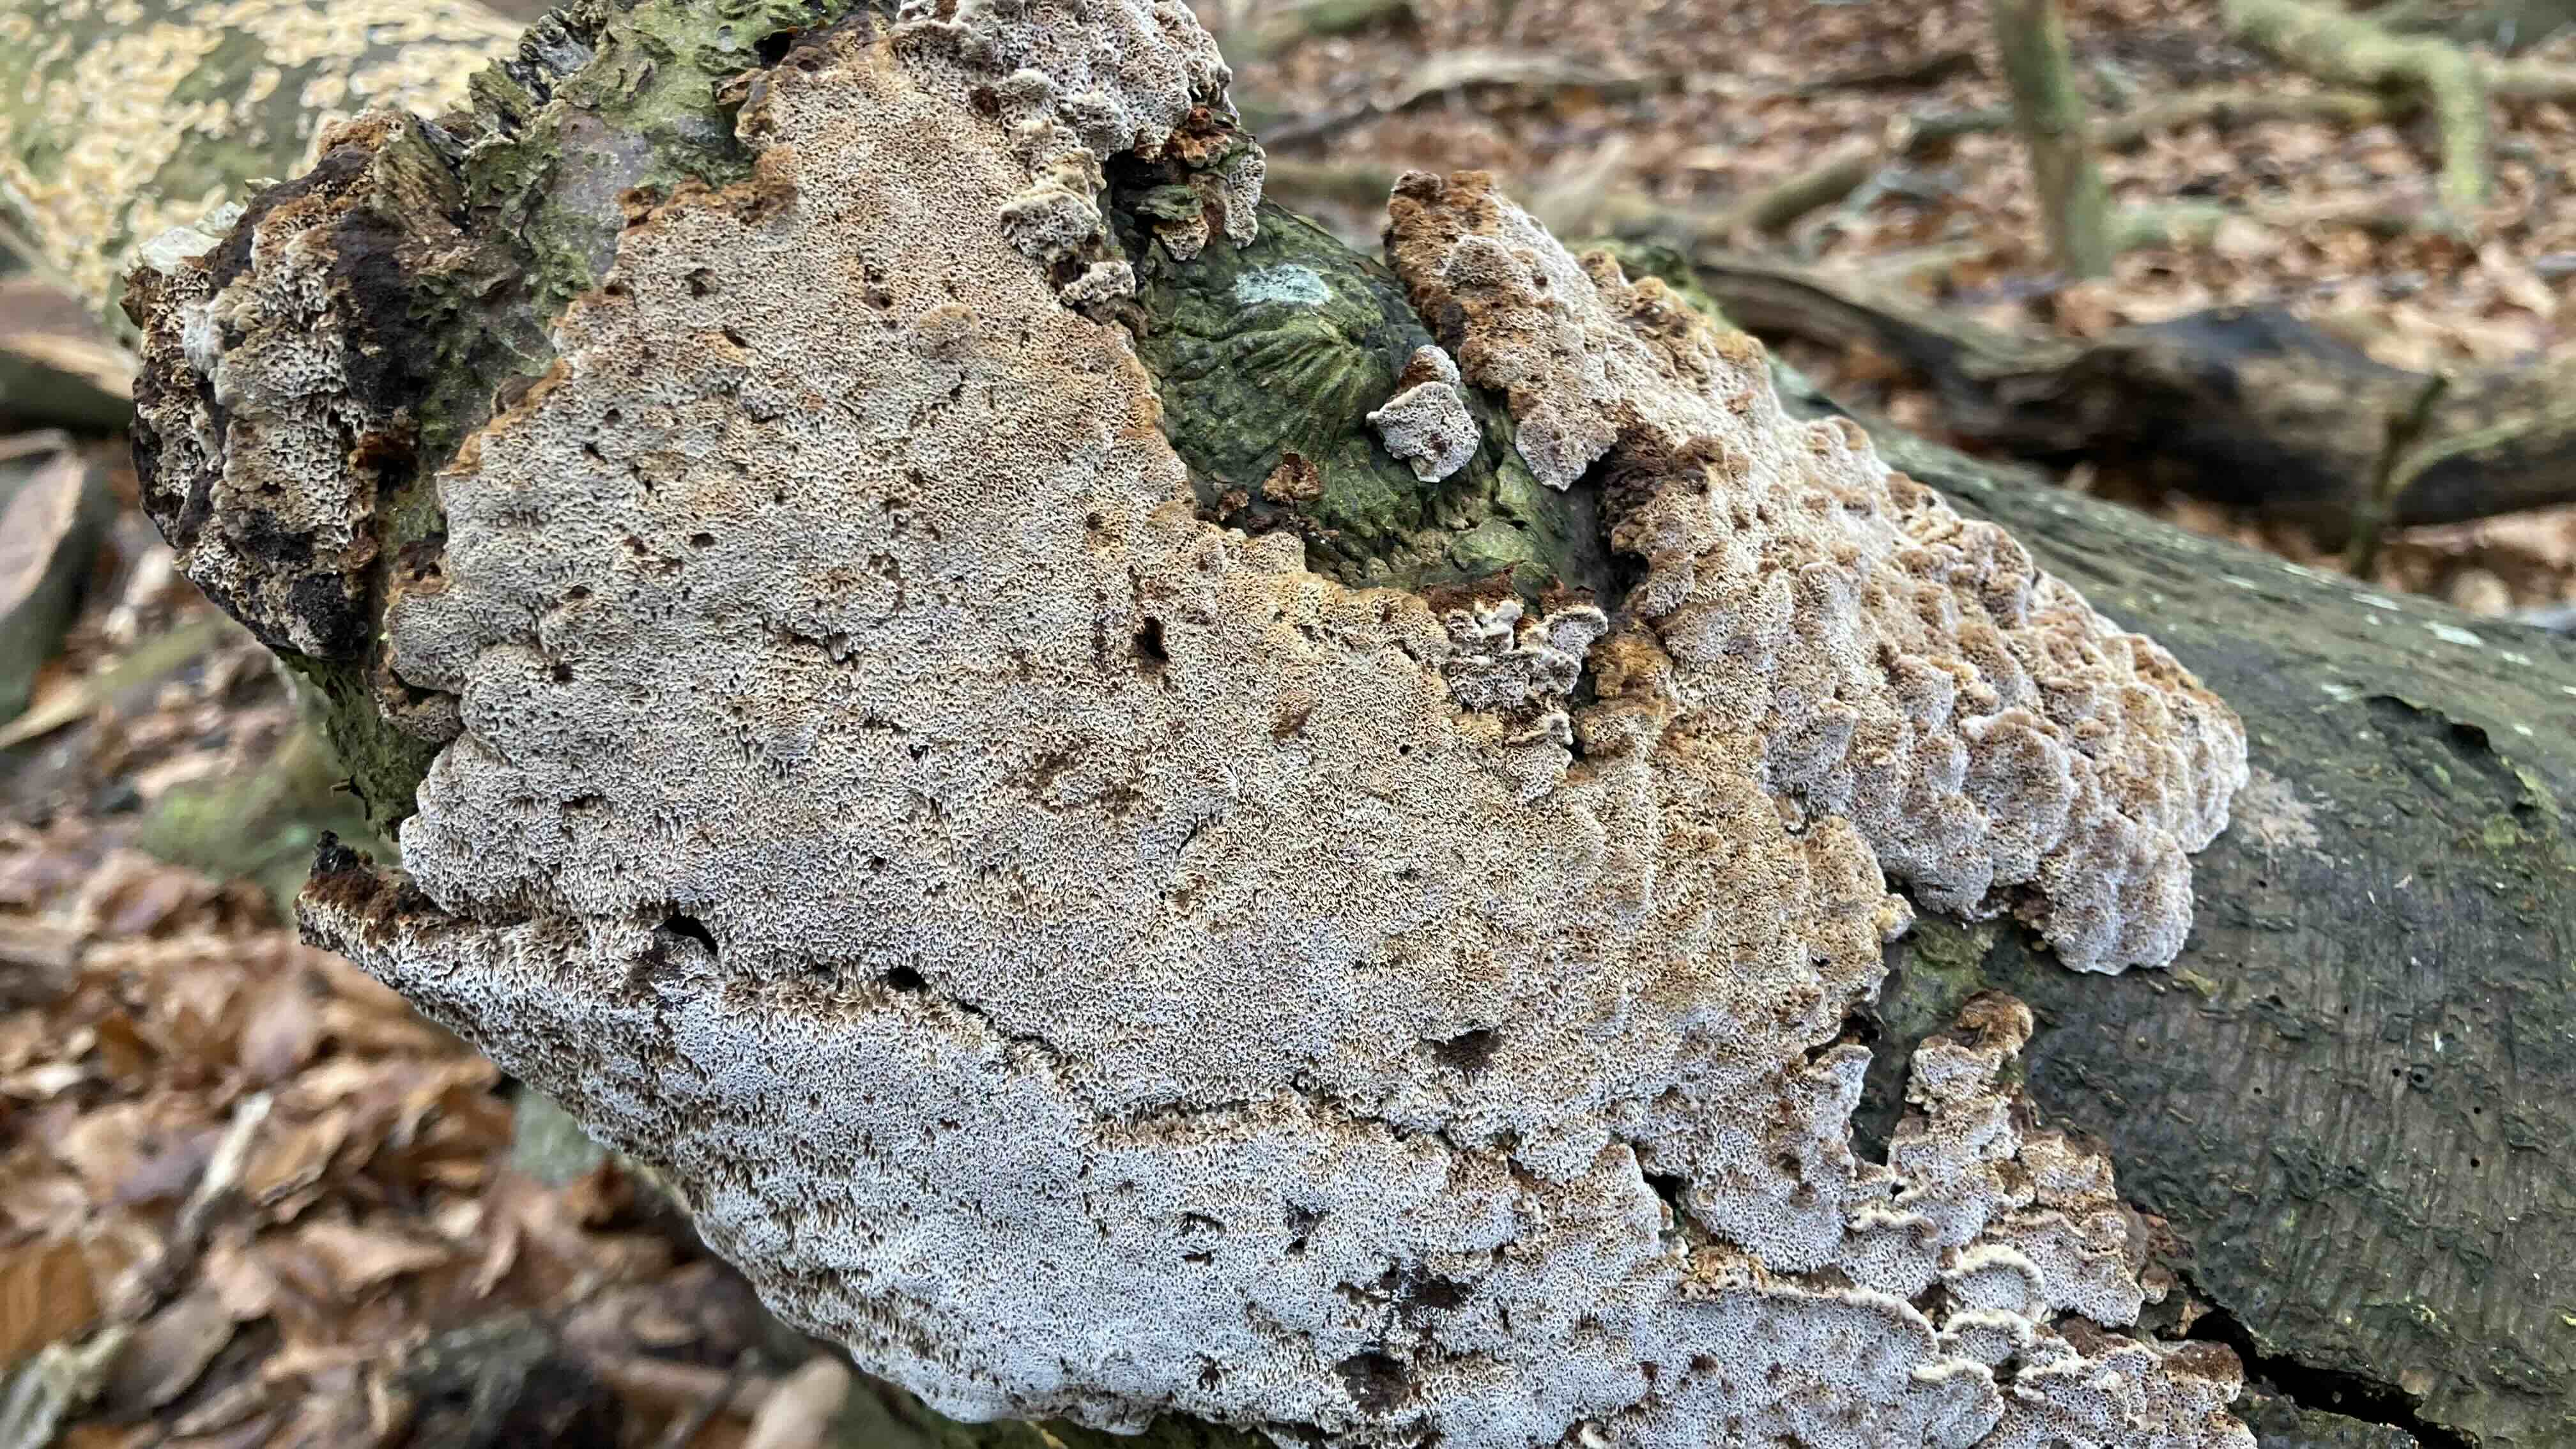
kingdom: Fungi
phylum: Basidiomycota
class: Agaricomycetes
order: Hymenochaetales
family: Hymenochaetaceae
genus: Mensularia
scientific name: Mensularia nodulosa
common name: bøge-spejlporesvamp
